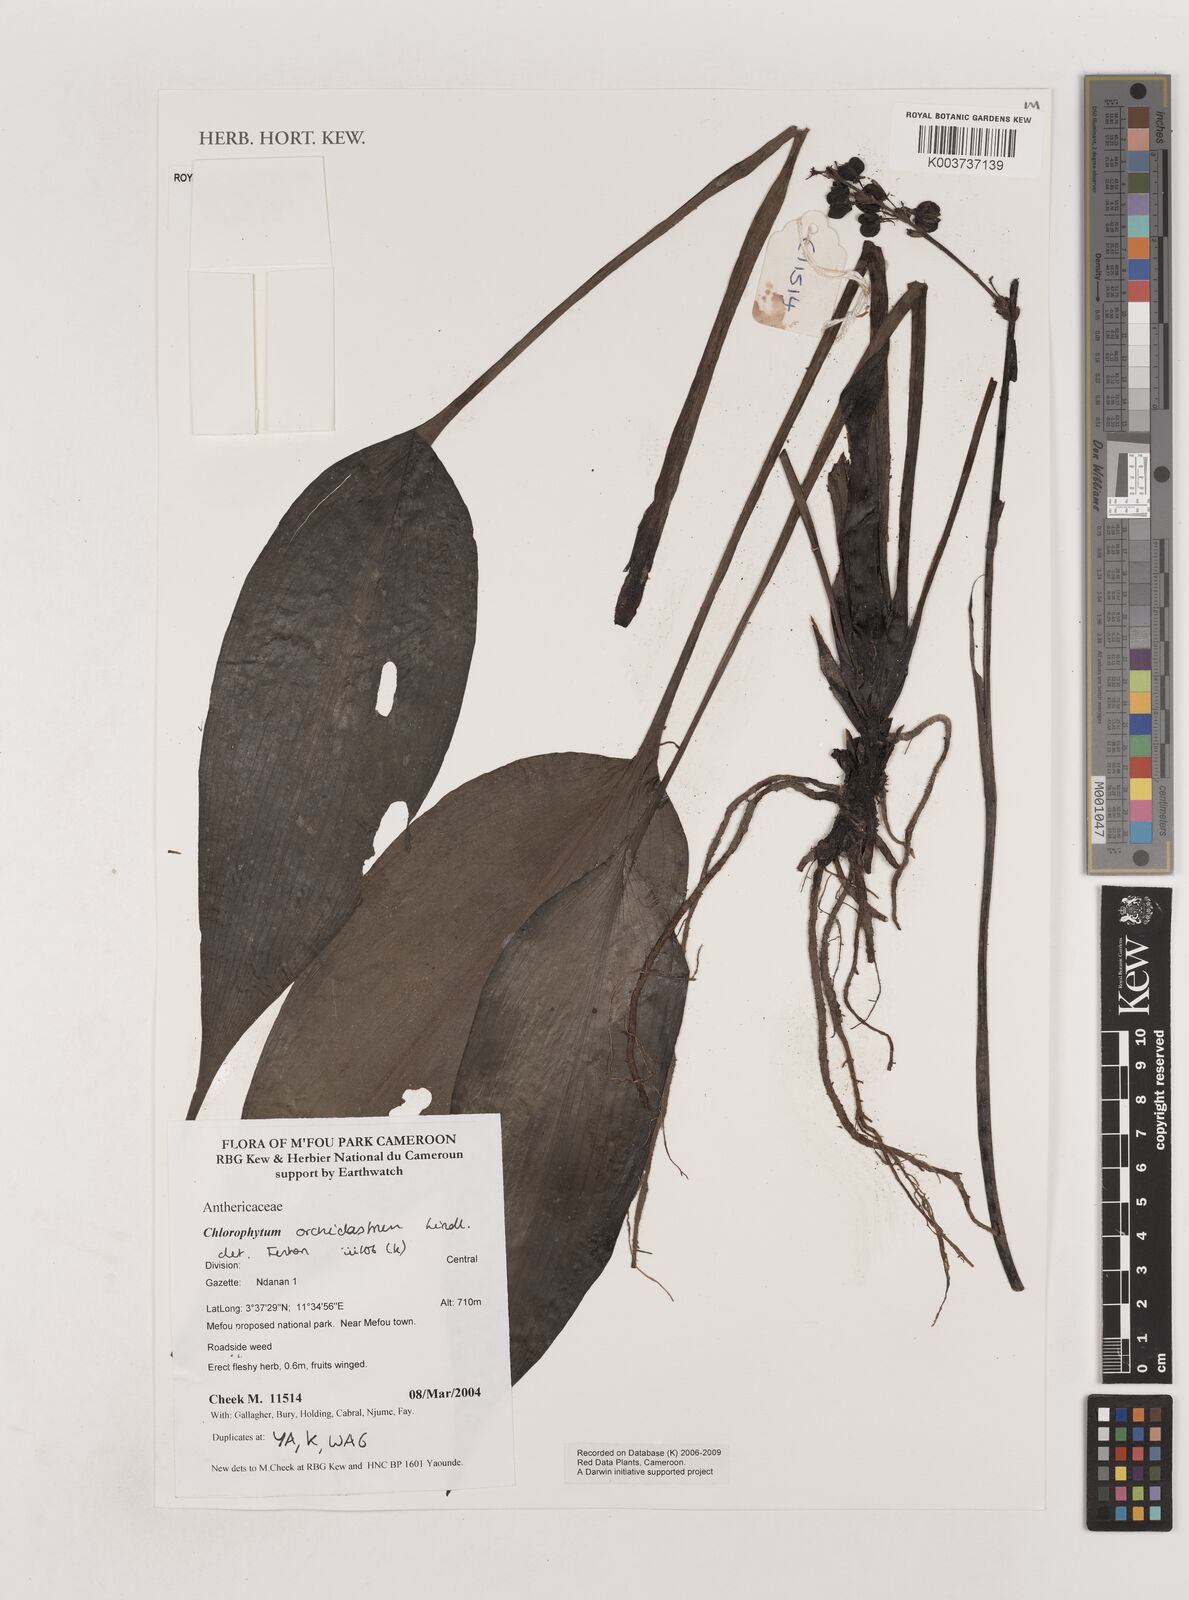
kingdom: Plantae
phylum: Tracheophyta
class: Liliopsida
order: Asparagales
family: Asparagaceae
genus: Chlorophytum
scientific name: Chlorophytum orchidastrum
